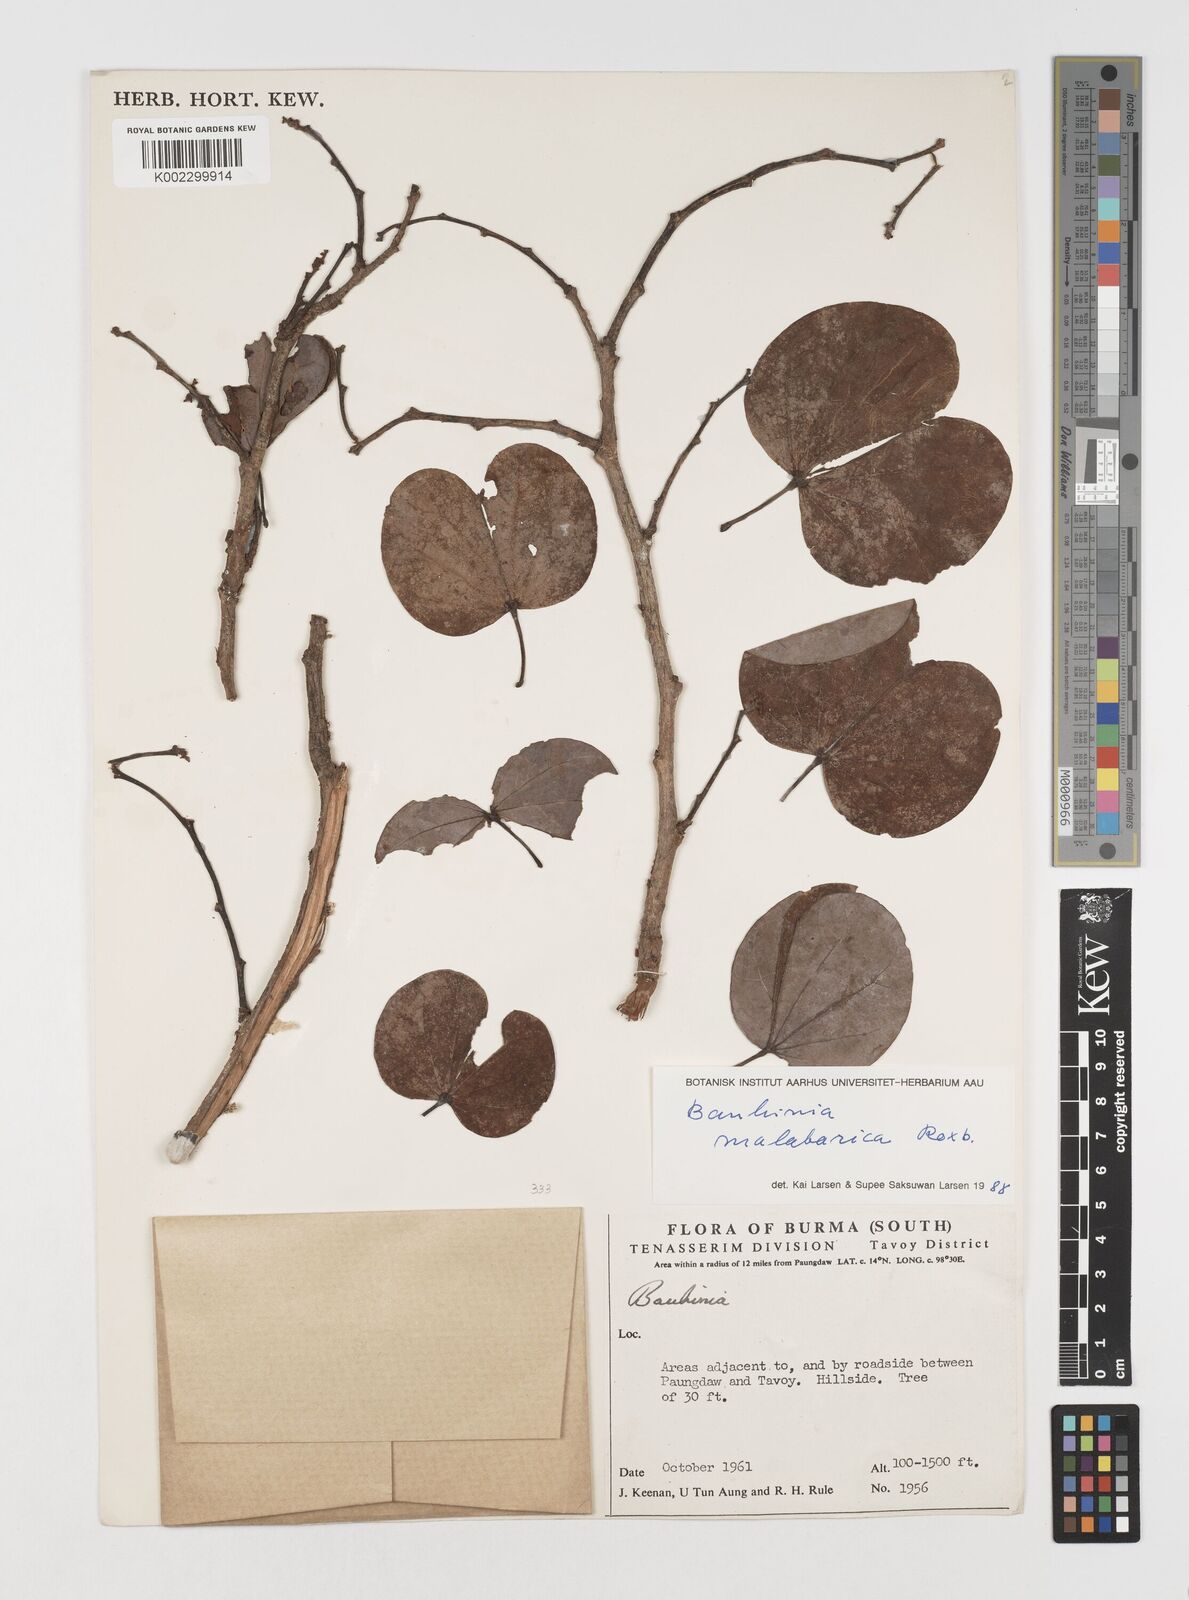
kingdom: Plantae
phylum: Tracheophyta
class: Magnoliopsida
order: Fabales
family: Fabaceae
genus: Piliostigma
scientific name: Piliostigma malabaricum
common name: Malabar bauhinia
